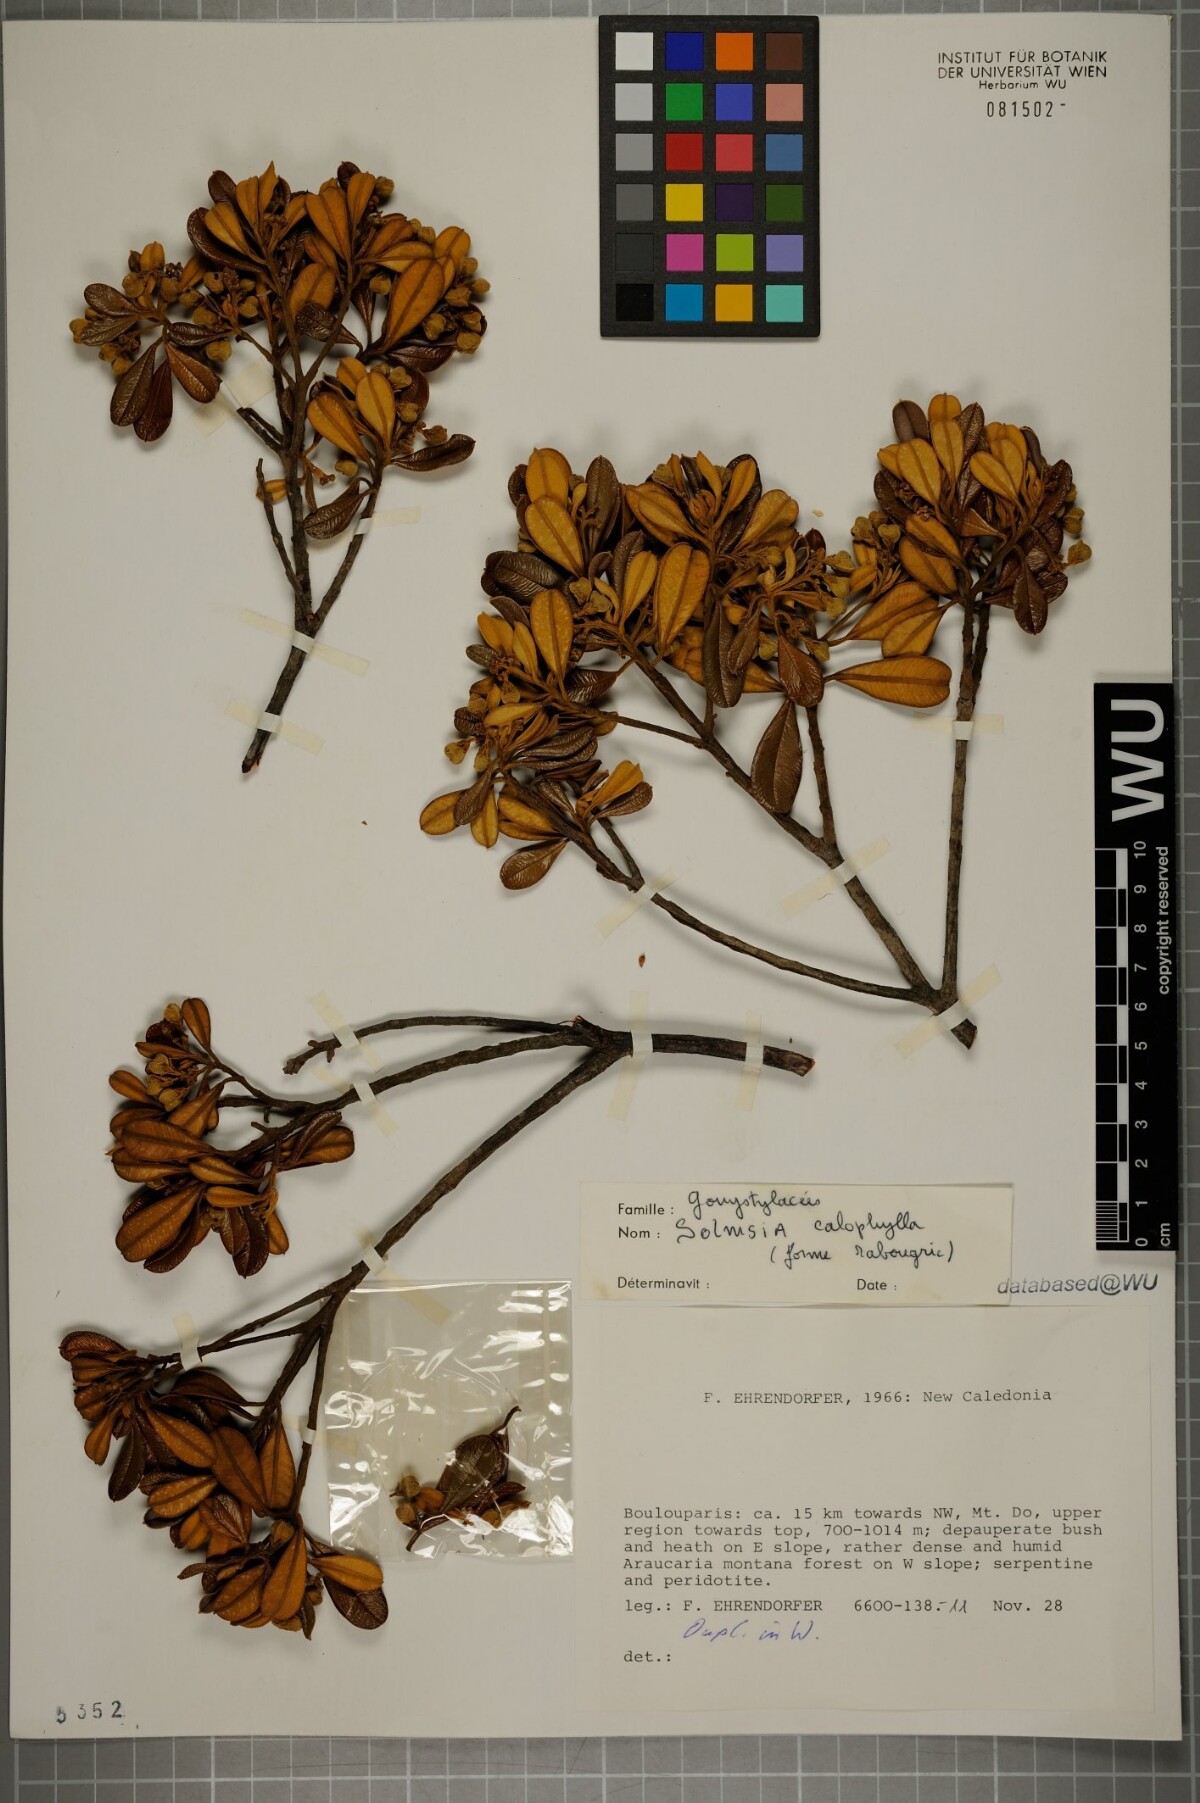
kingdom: Plantae
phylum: Tracheophyta
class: Magnoliopsida
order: Malvales
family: Thymelaeaceae
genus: Solmsia
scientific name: Solmsia calophylla
